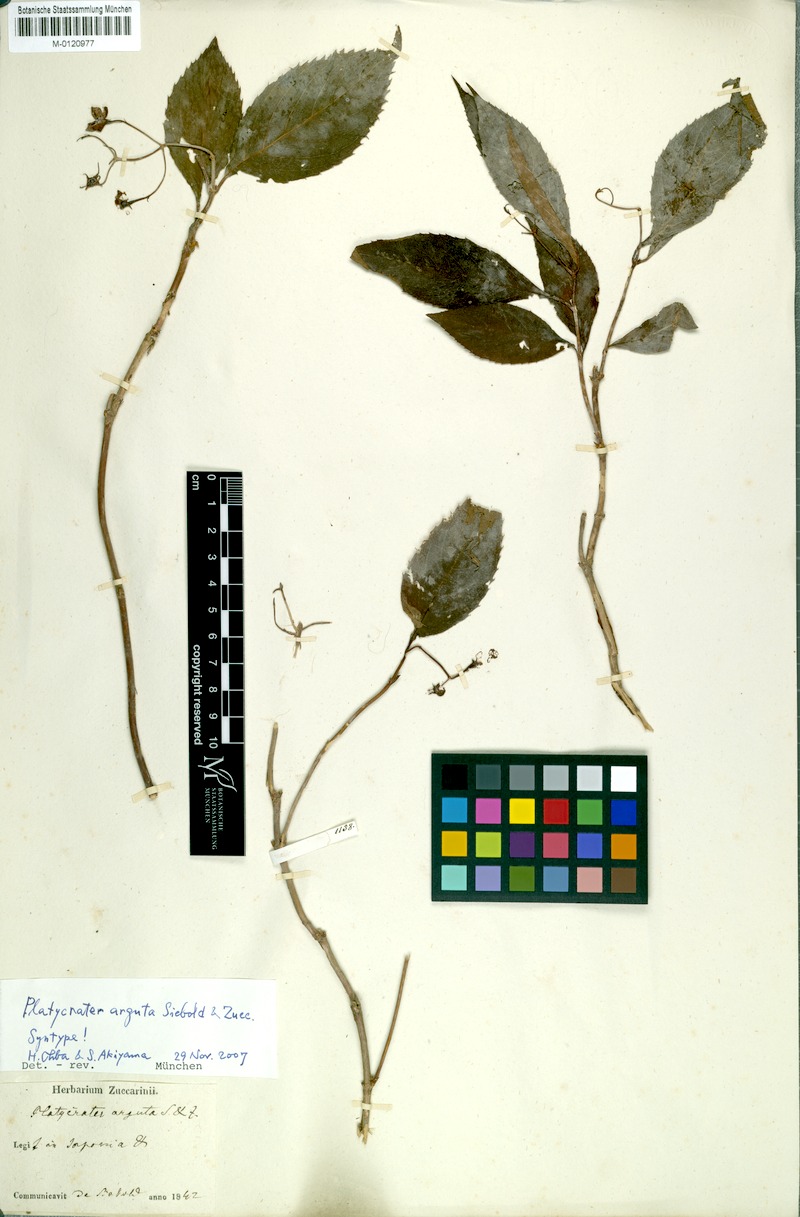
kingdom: Plantae
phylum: Tracheophyta
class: Magnoliopsida
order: Cornales
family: Hydrangeaceae
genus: Hydrangea
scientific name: Hydrangea platyarguta
